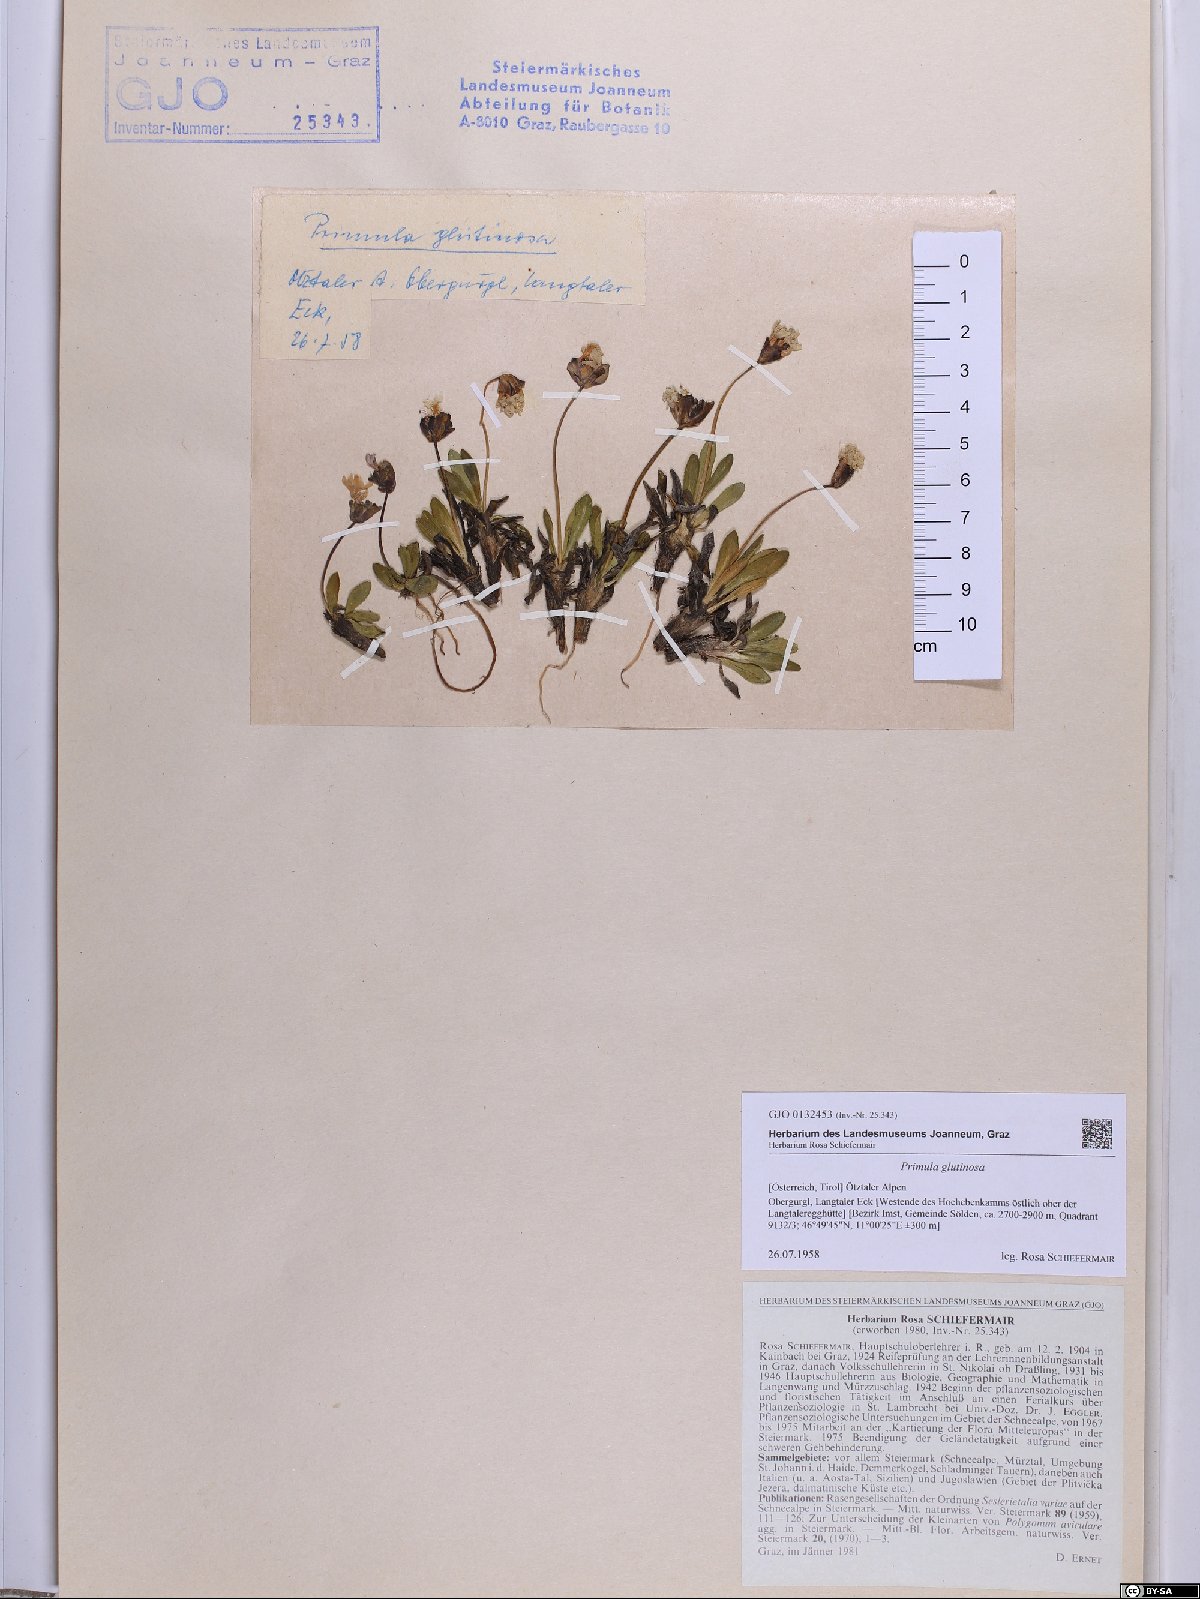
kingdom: Plantae
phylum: Tracheophyta
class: Magnoliopsida
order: Ericales
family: Primulaceae
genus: Primula
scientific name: Primula glutinosa
